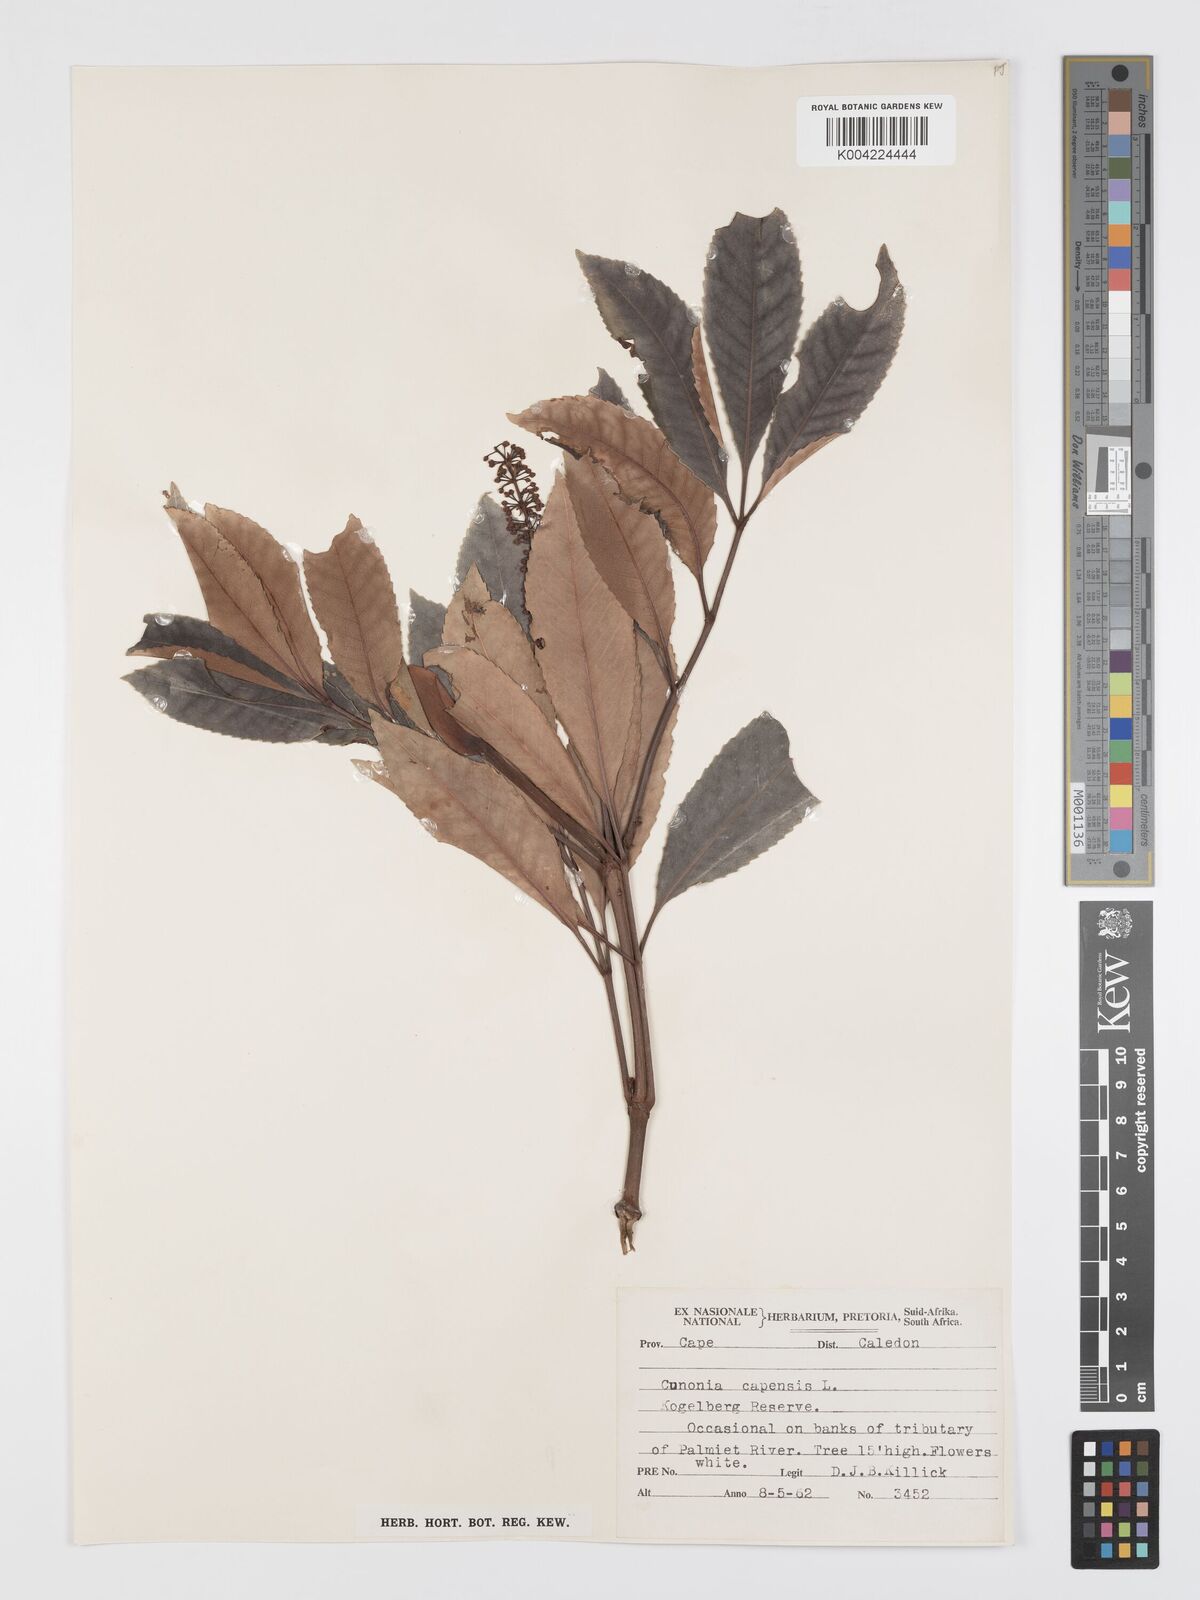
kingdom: Plantae
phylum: Tracheophyta
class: Magnoliopsida
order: Oxalidales
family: Cunoniaceae
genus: Cunonia
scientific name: Cunonia capensis
